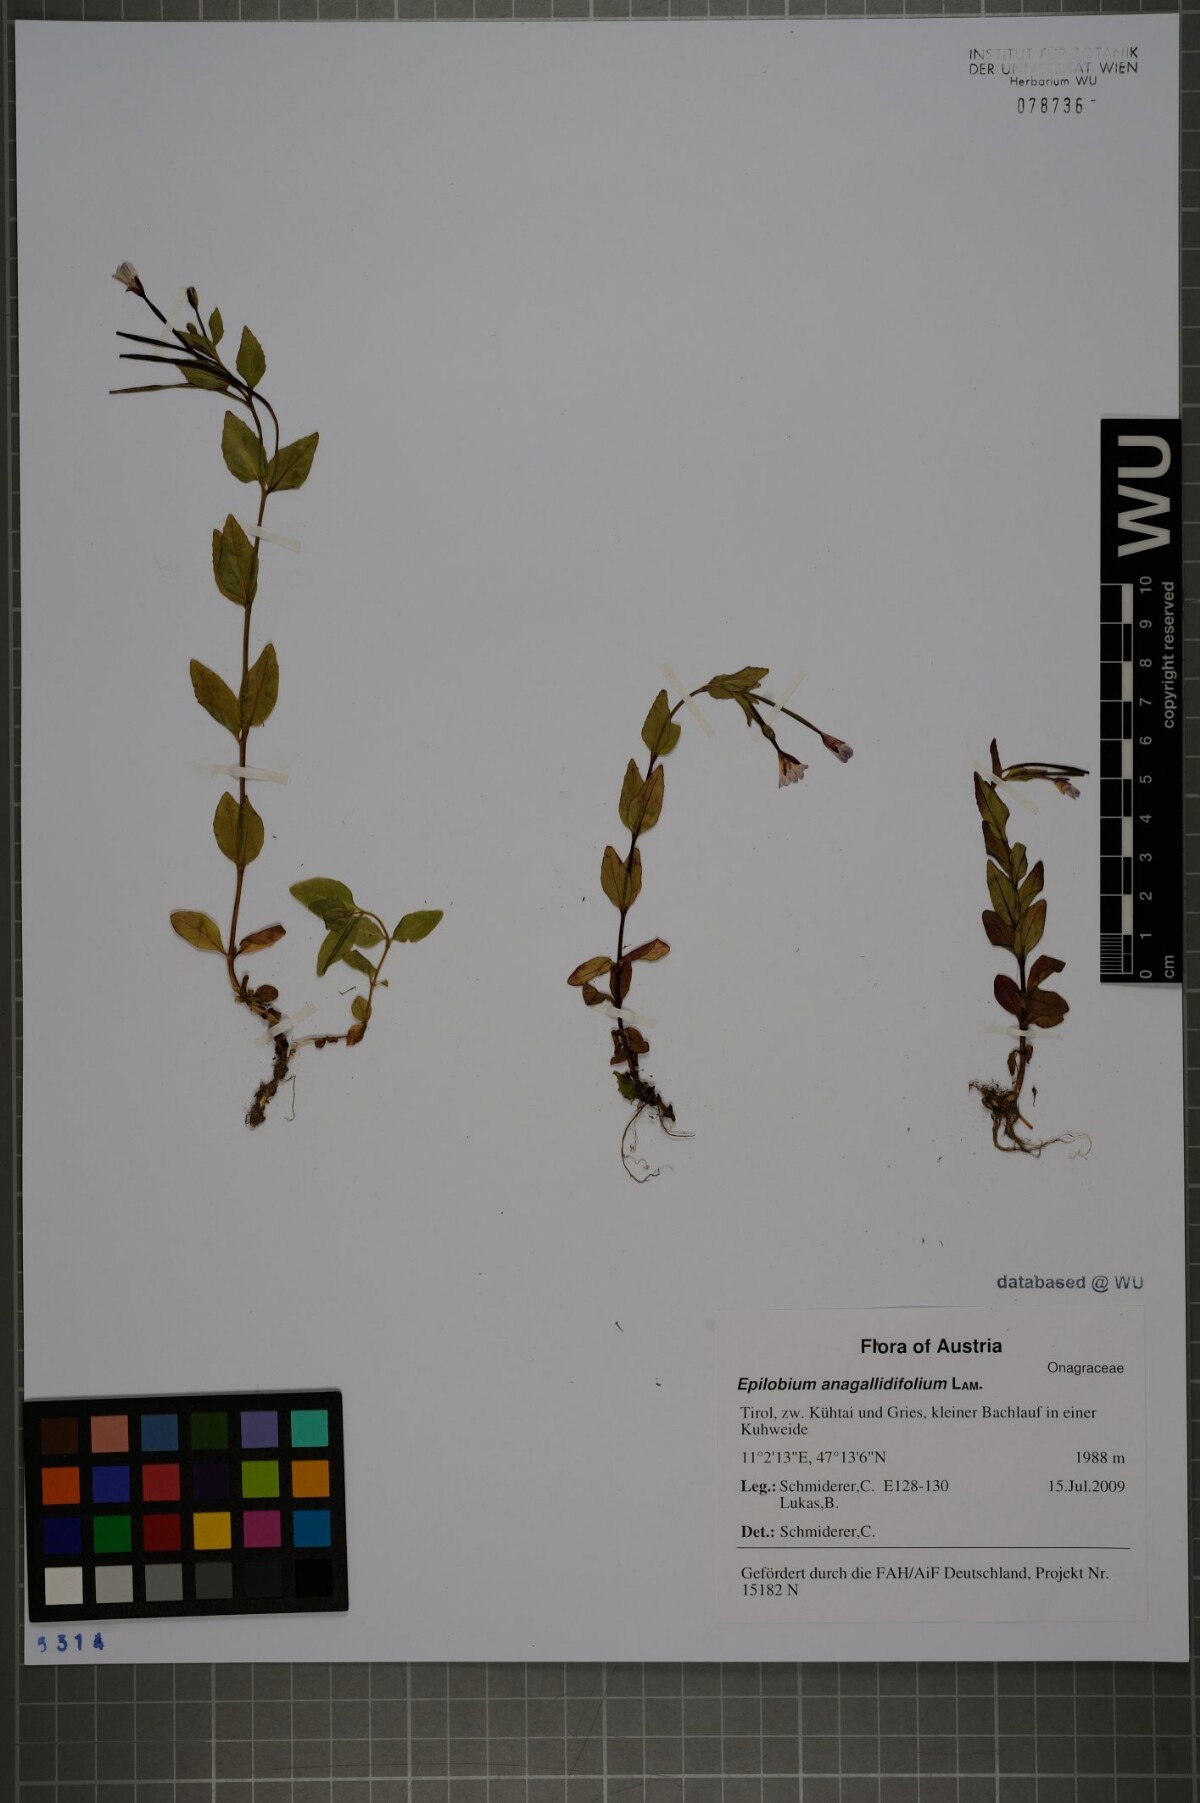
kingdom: Plantae
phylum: Tracheophyta
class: Magnoliopsida
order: Myrtales
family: Onagraceae
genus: Epilobium
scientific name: Epilobium anagallidifolium
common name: Alpine willowherb
